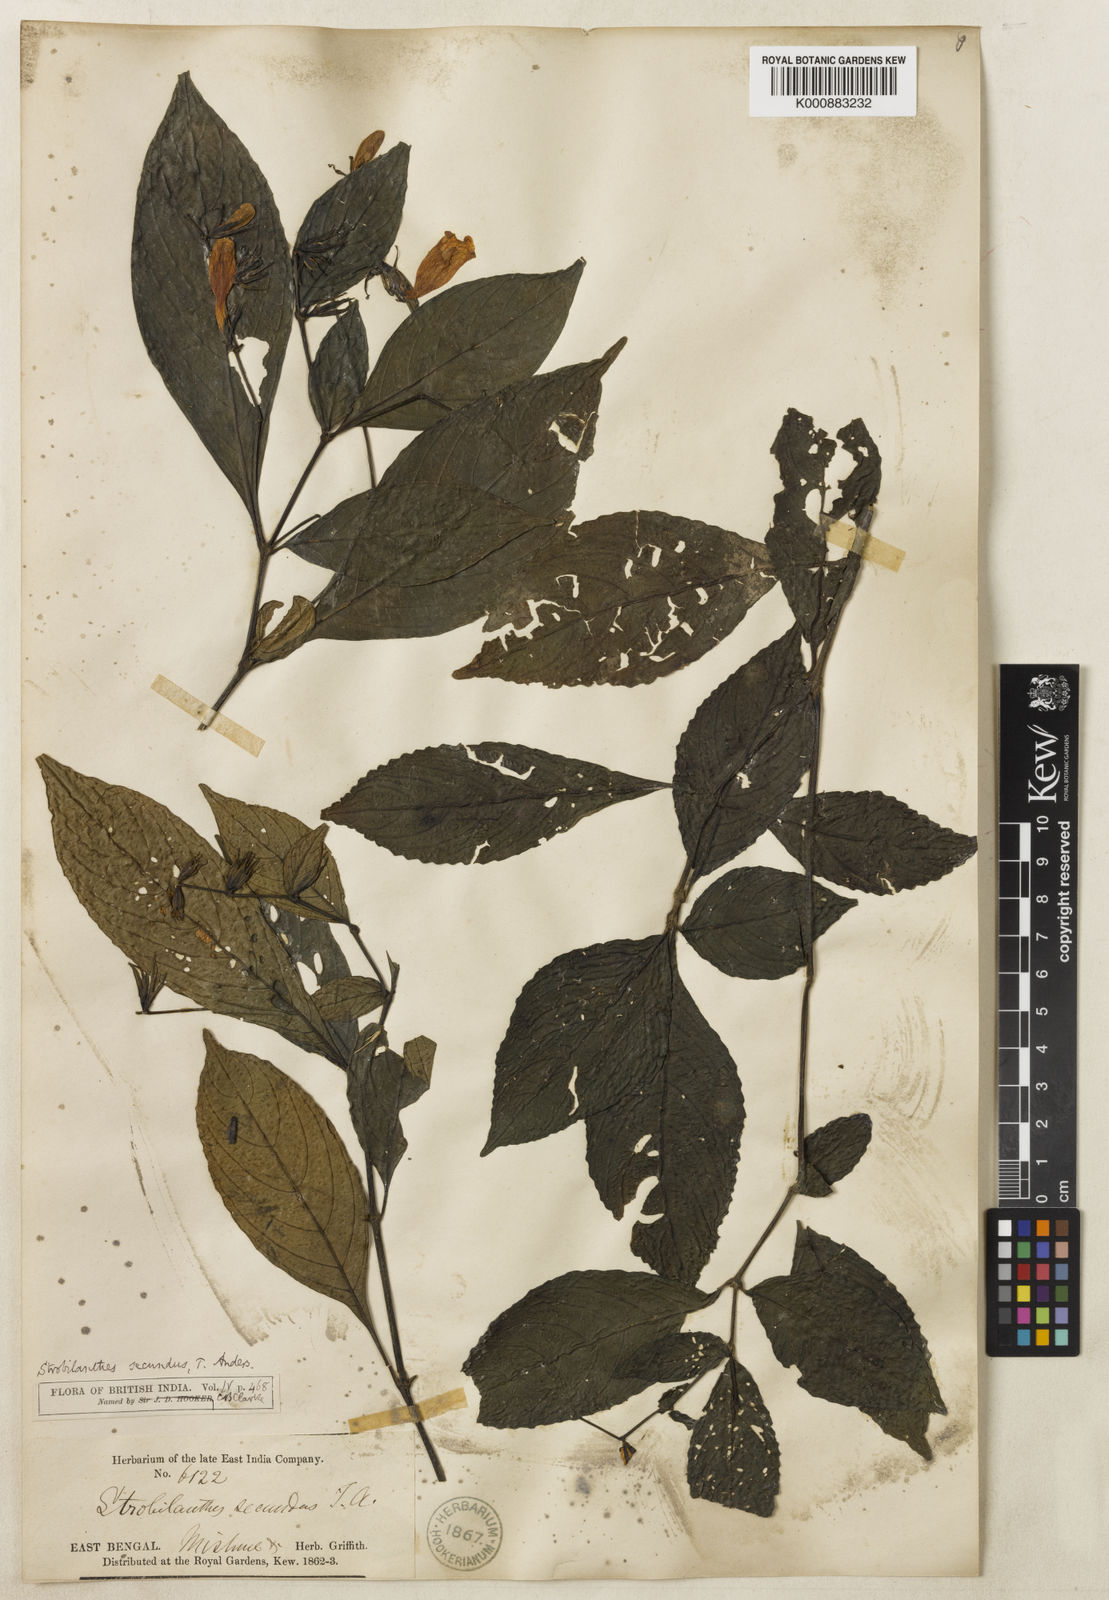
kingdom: Plantae
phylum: Tracheophyta
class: Magnoliopsida
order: Lamiales
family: Acanthaceae
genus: Strobilanthes
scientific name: Strobilanthes secunda
